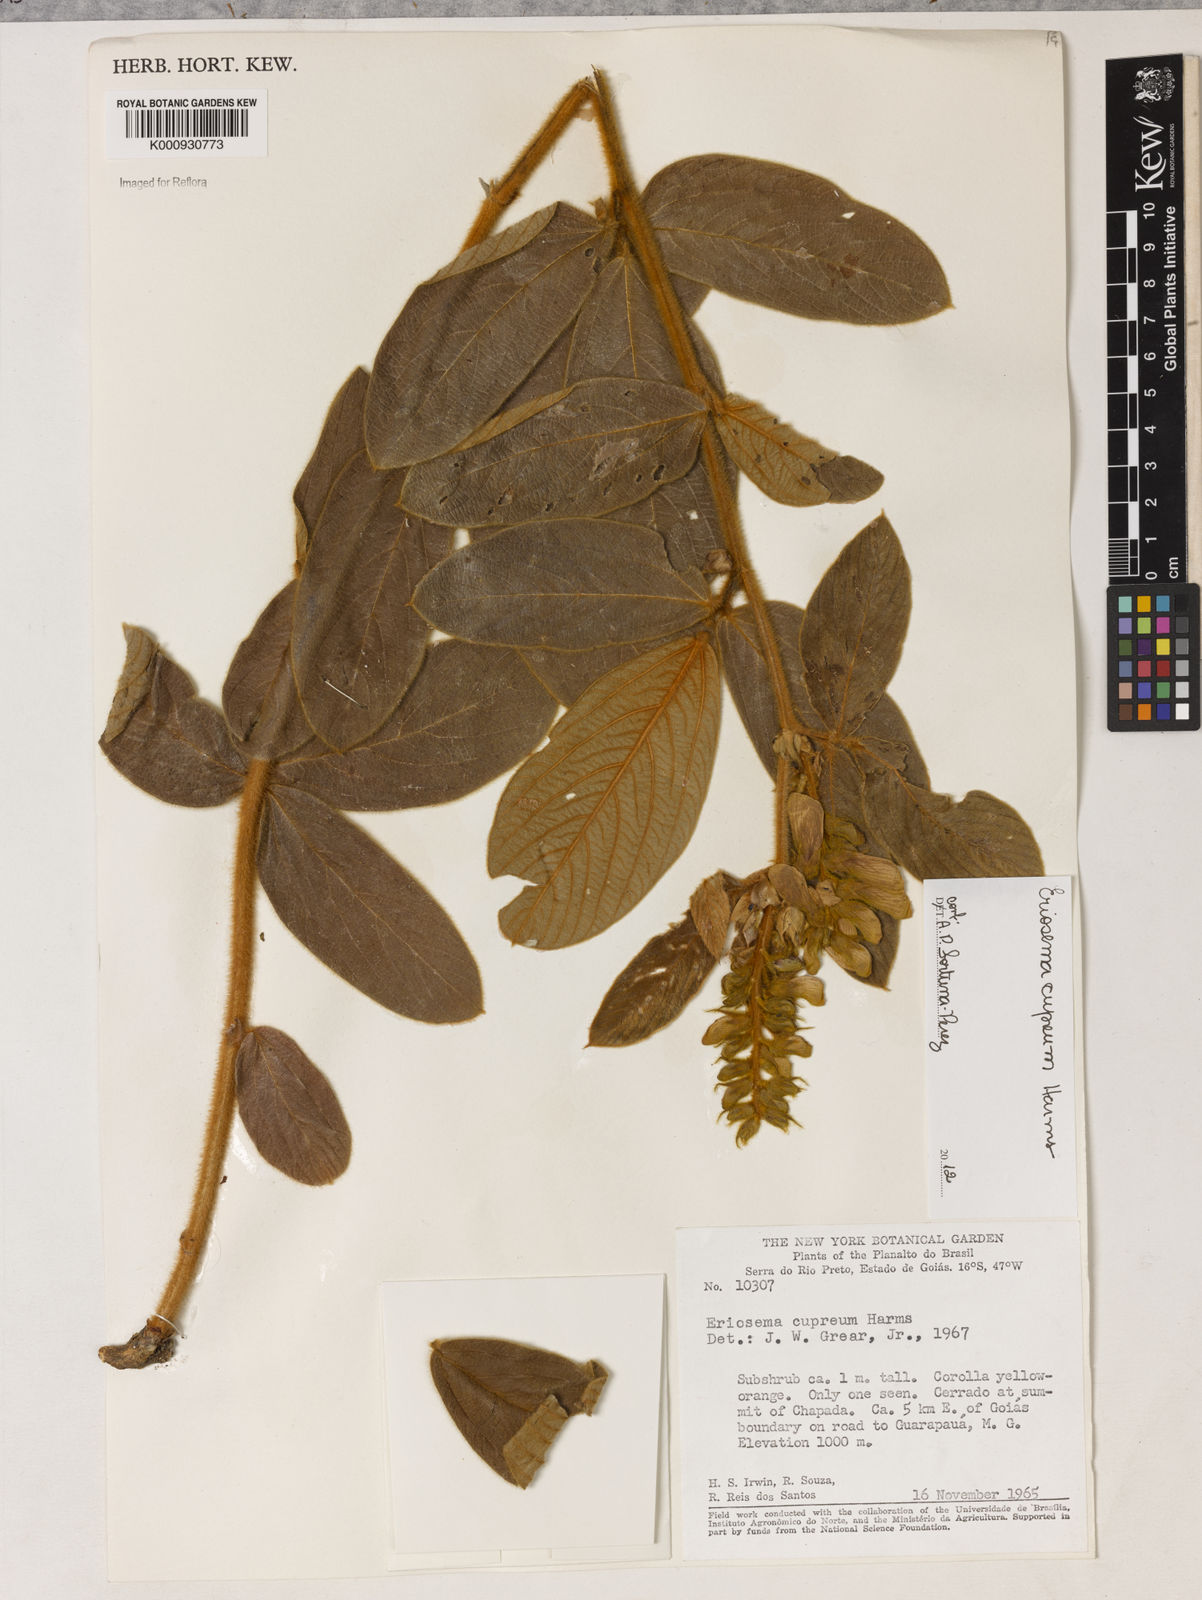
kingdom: Plantae
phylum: Tracheophyta
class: Magnoliopsida
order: Fabales
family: Fabaceae
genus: Eriosema
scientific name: Eriosema cupreum
